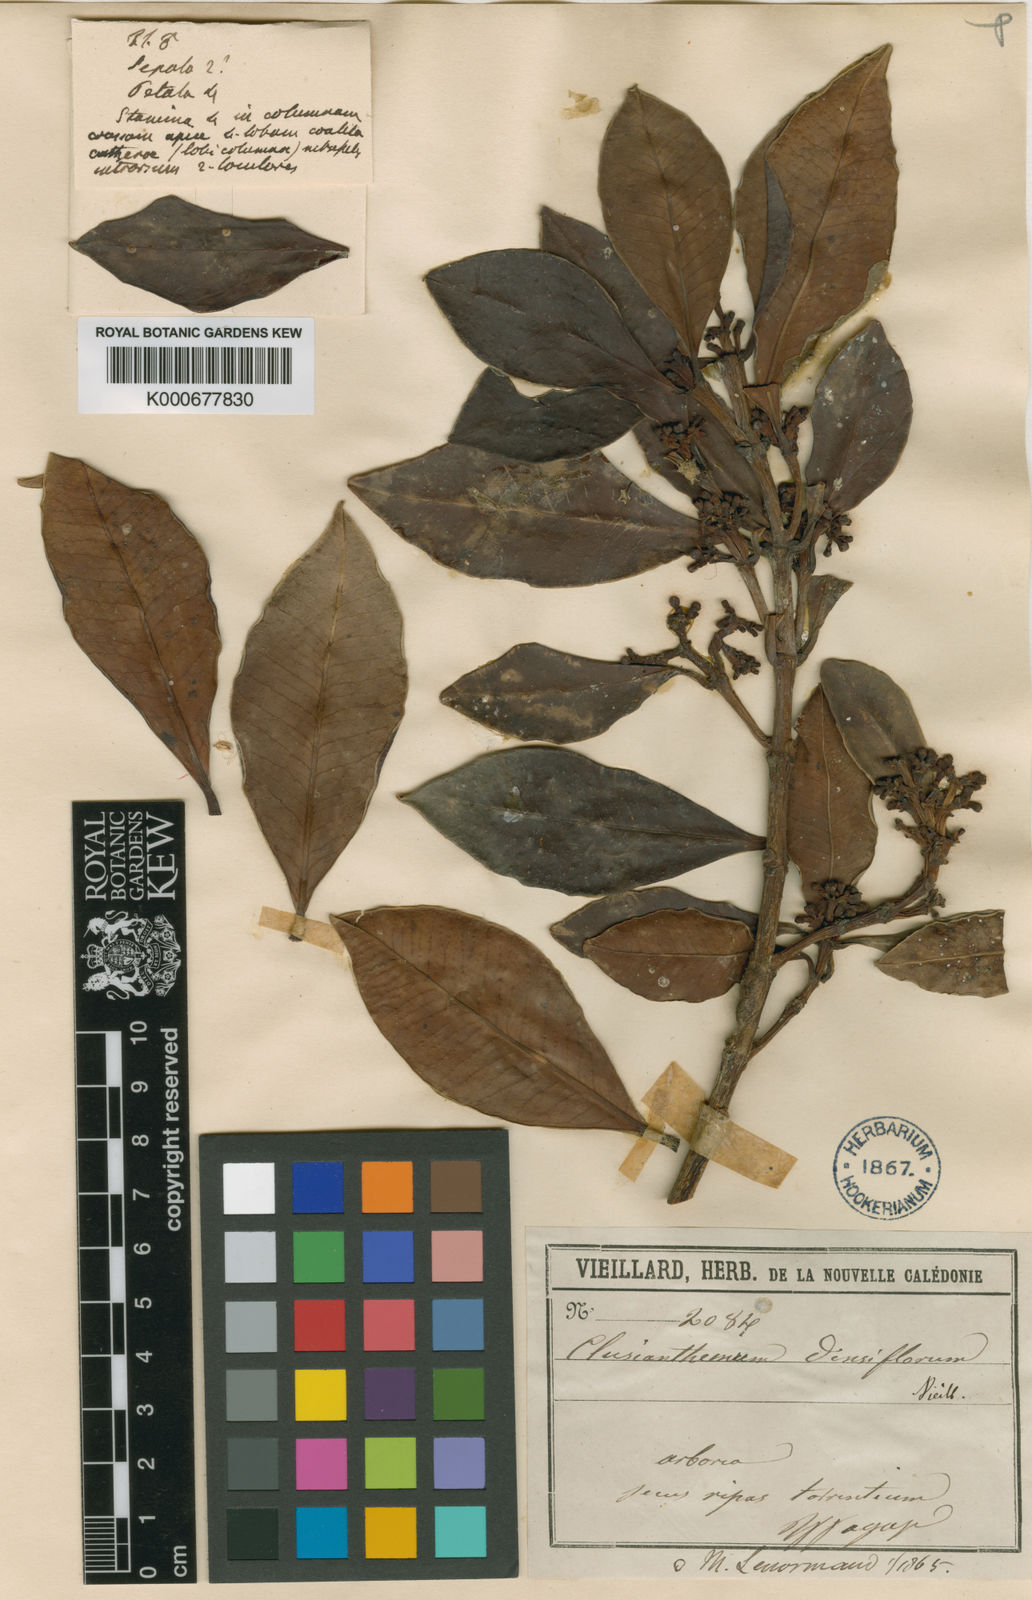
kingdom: Plantae
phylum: Tracheophyta
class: Magnoliopsida
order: Malpighiales
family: Clusiaceae
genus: Garcinia
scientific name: Garcinia densiflora
